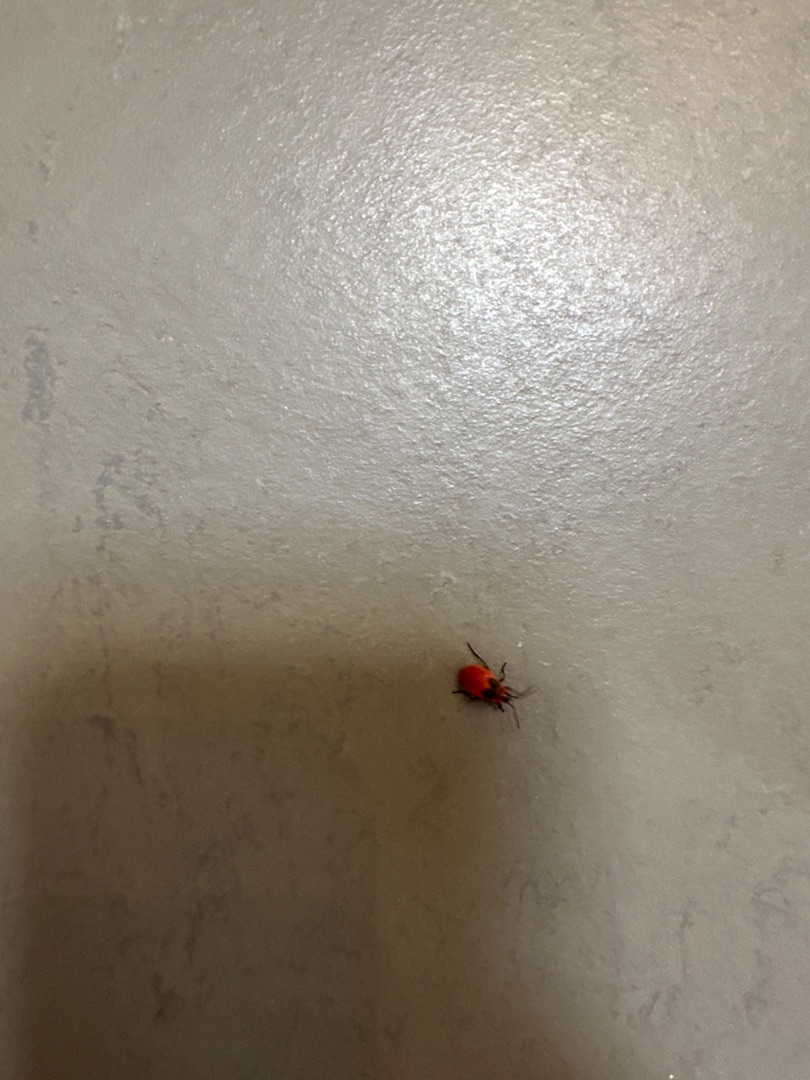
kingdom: Animalia
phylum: Arthropoda
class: Insecta
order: Hemiptera
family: Pyrrhocoridae
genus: Pyrrhocoris
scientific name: Pyrrhocoris apterus
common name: Ildtæge
